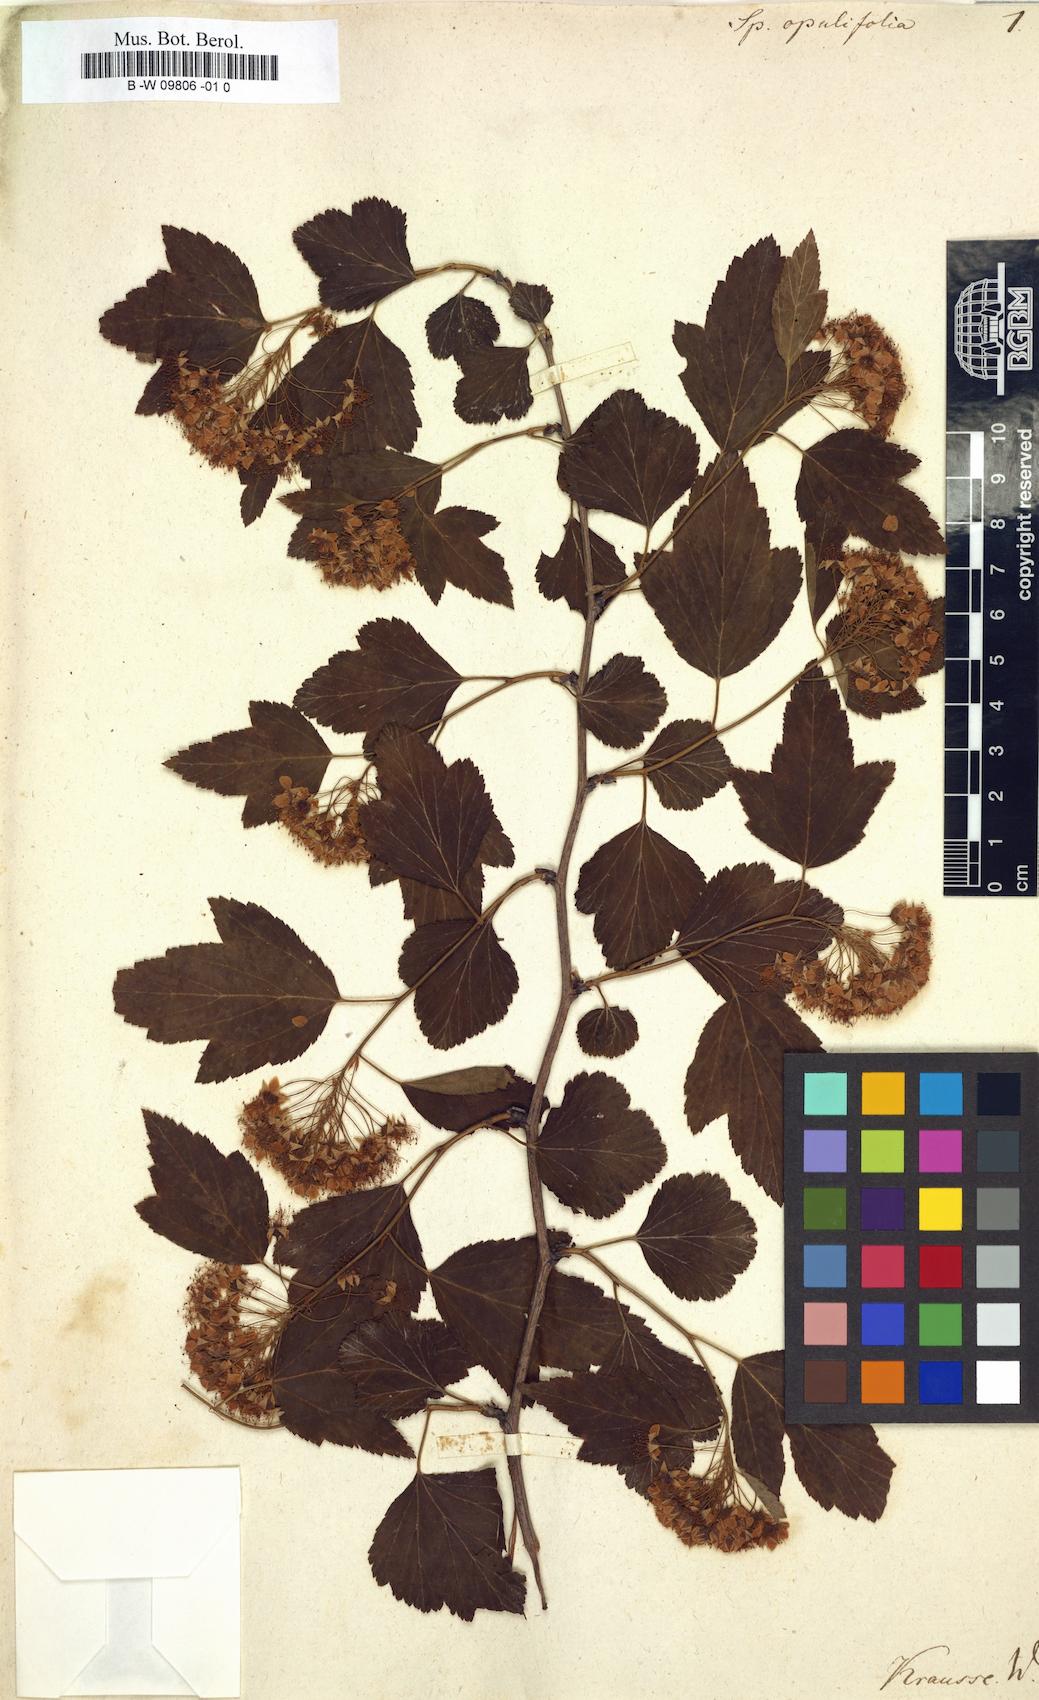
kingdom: Plantae
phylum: Tracheophyta
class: Magnoliopsida
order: Rosales
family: Rosaceae
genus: Physocarpus
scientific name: Physocarpus opulifolius
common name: Ninebark
